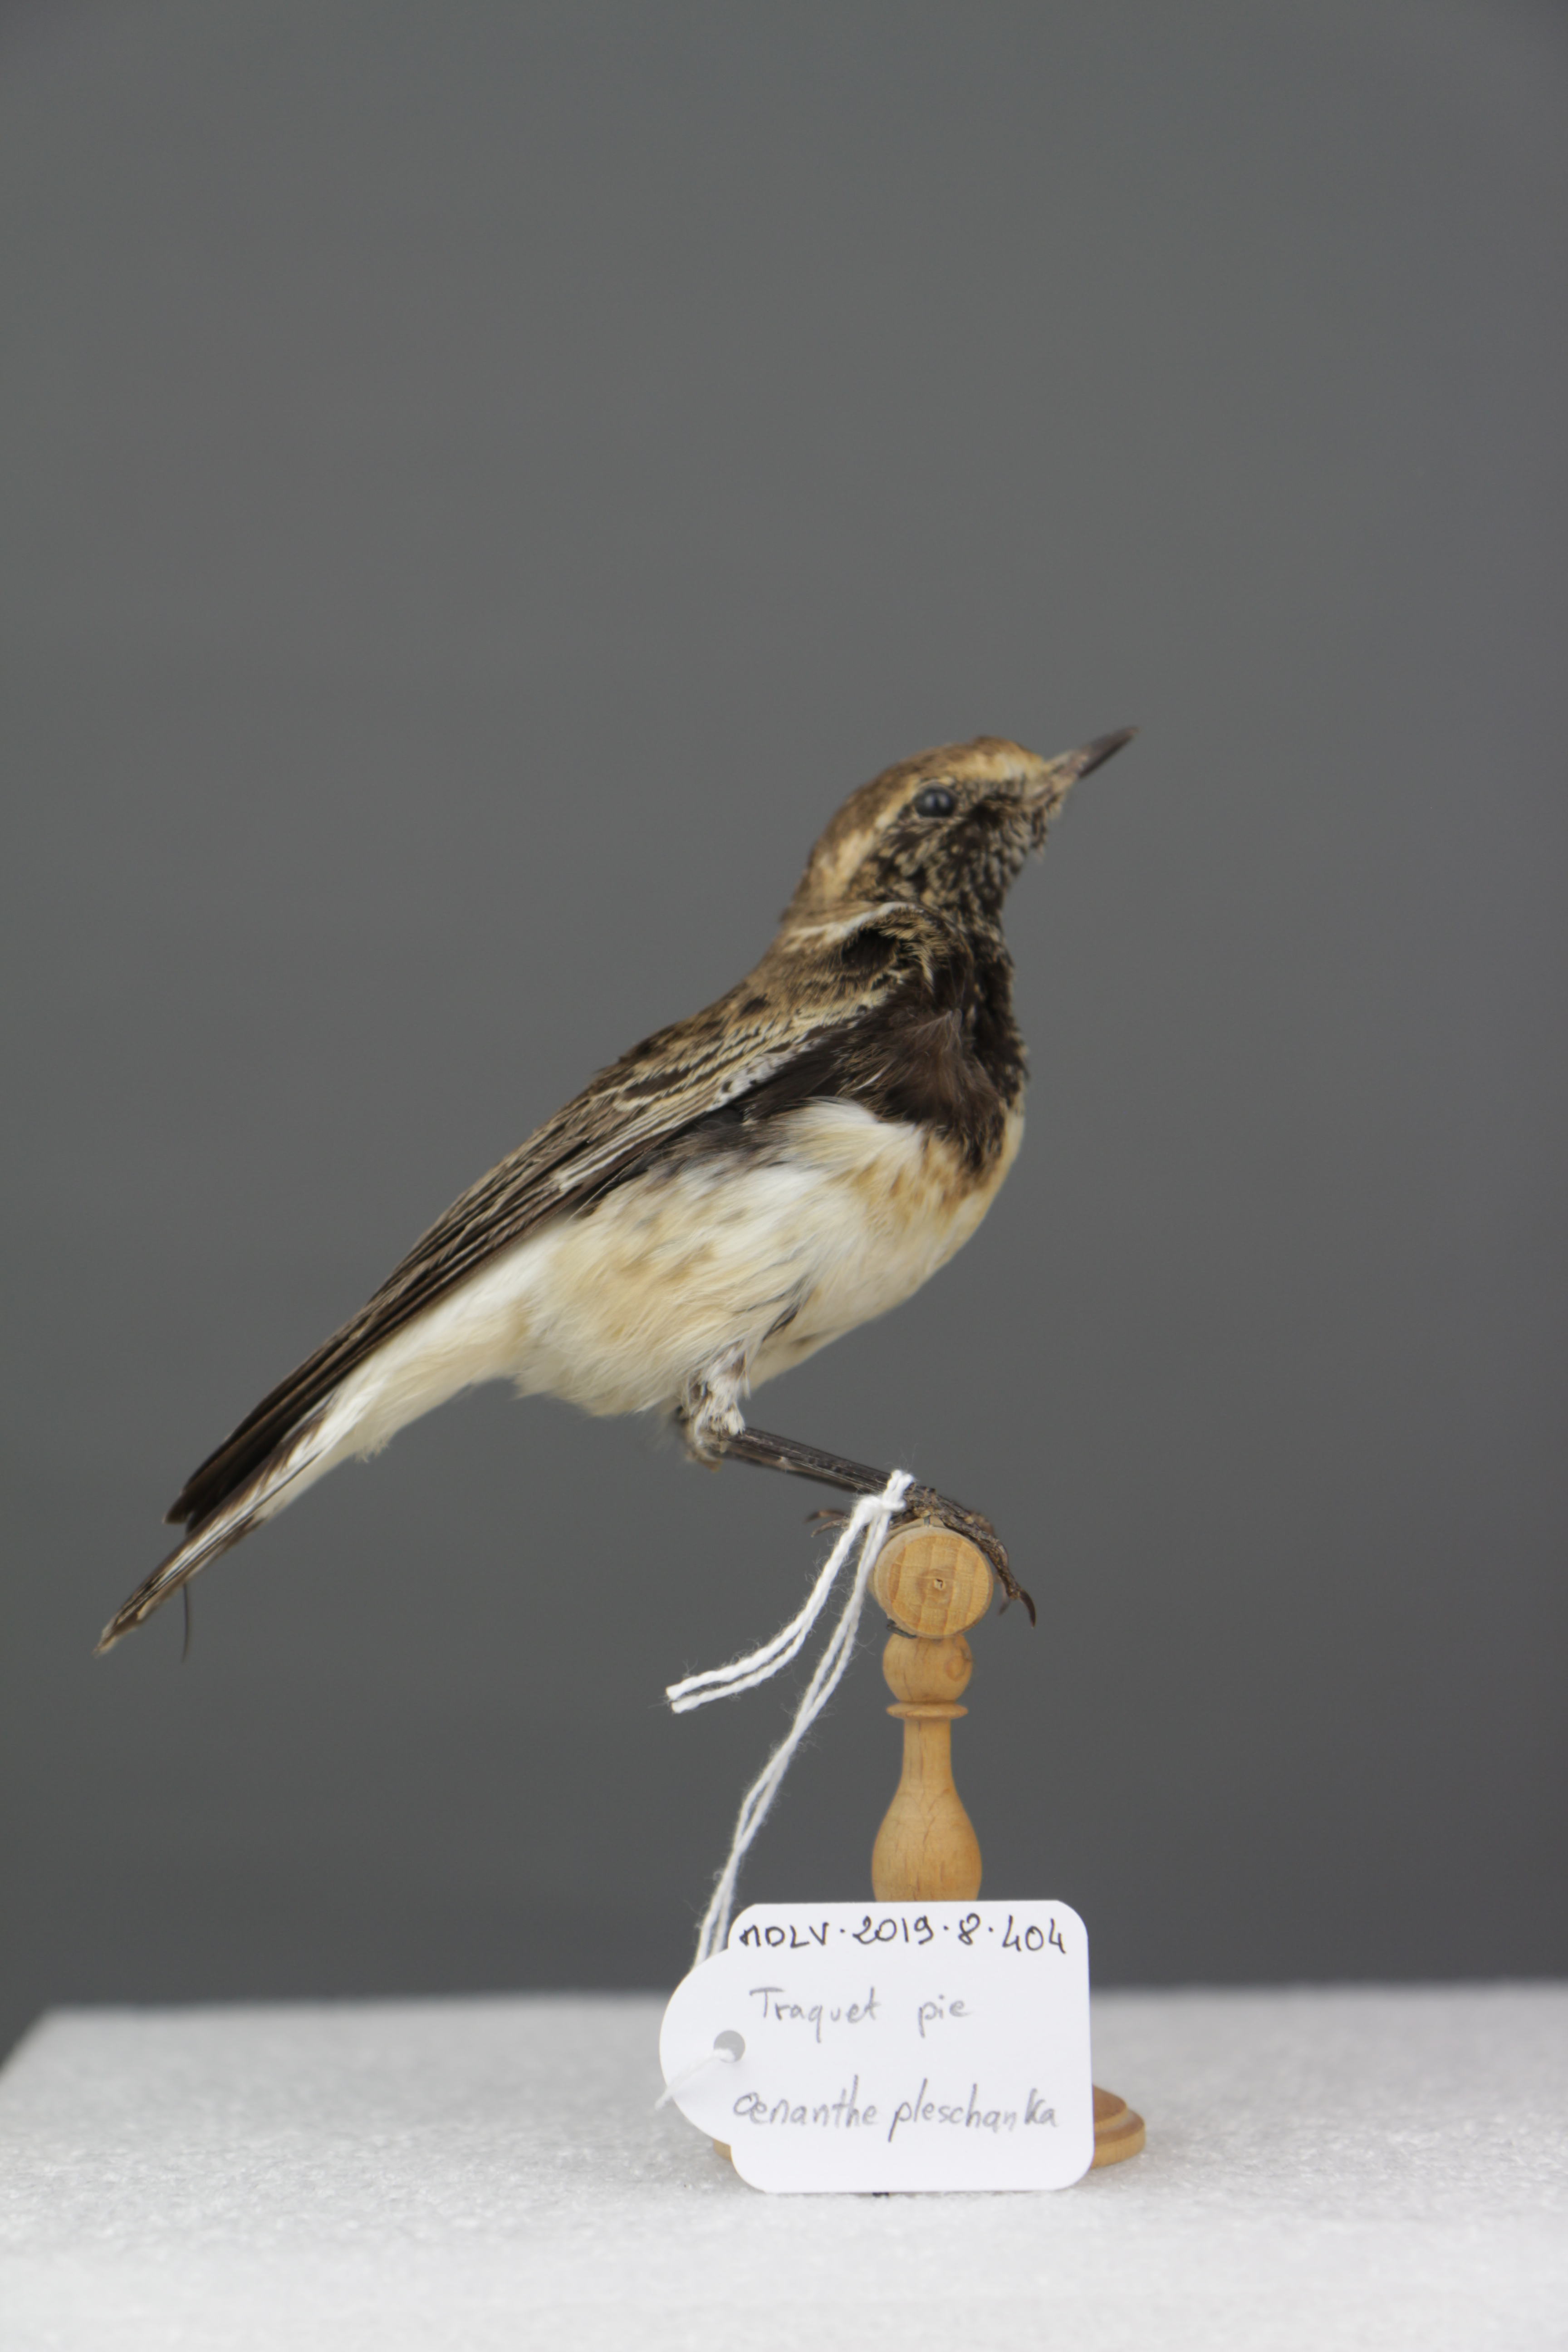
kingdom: Animalia
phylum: Chordata
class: Aves
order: Passeriformes
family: Muscicapidae
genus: Oenanthe
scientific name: Oenanthe pleschanka
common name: Pied wheatear
